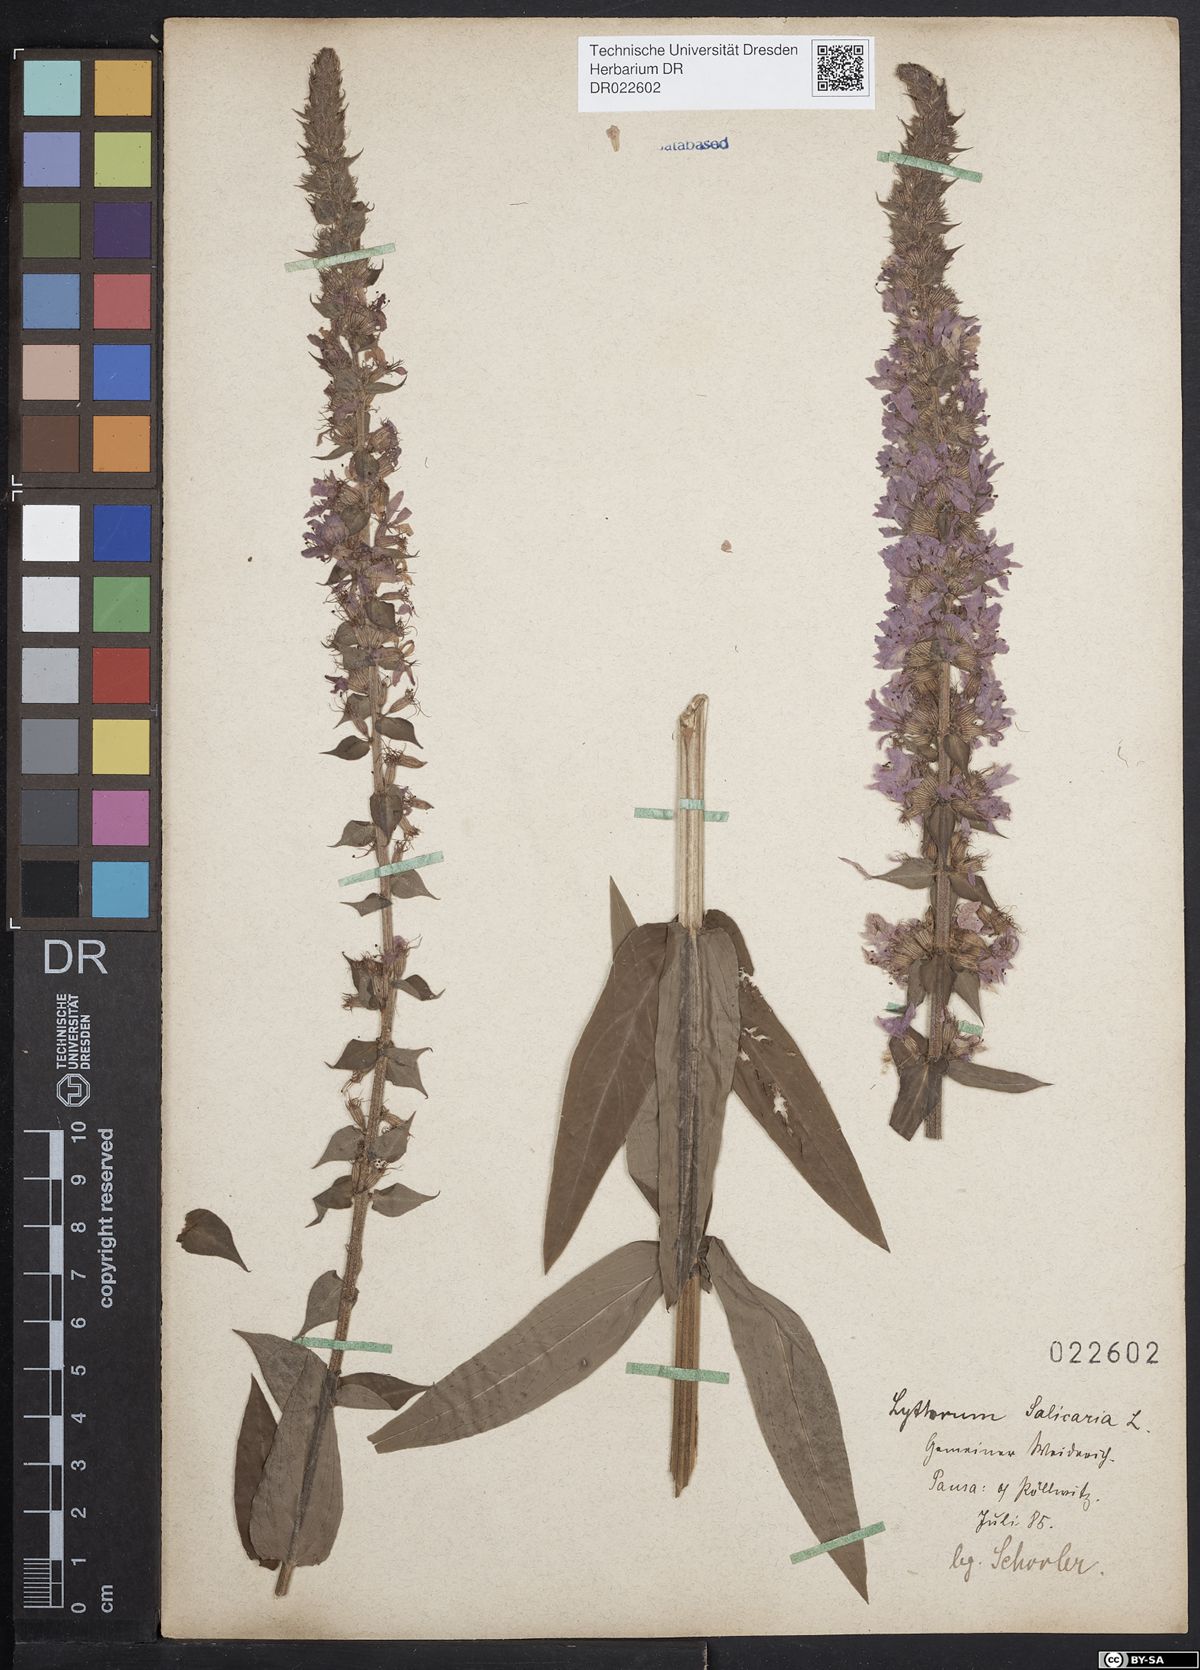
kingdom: Plantae
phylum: Tracheophyta
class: Magnoliopsida
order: Myrtales
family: Lythraceae
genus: Lythrum
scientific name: Lythrum salicaria
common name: Purple loosestrife
